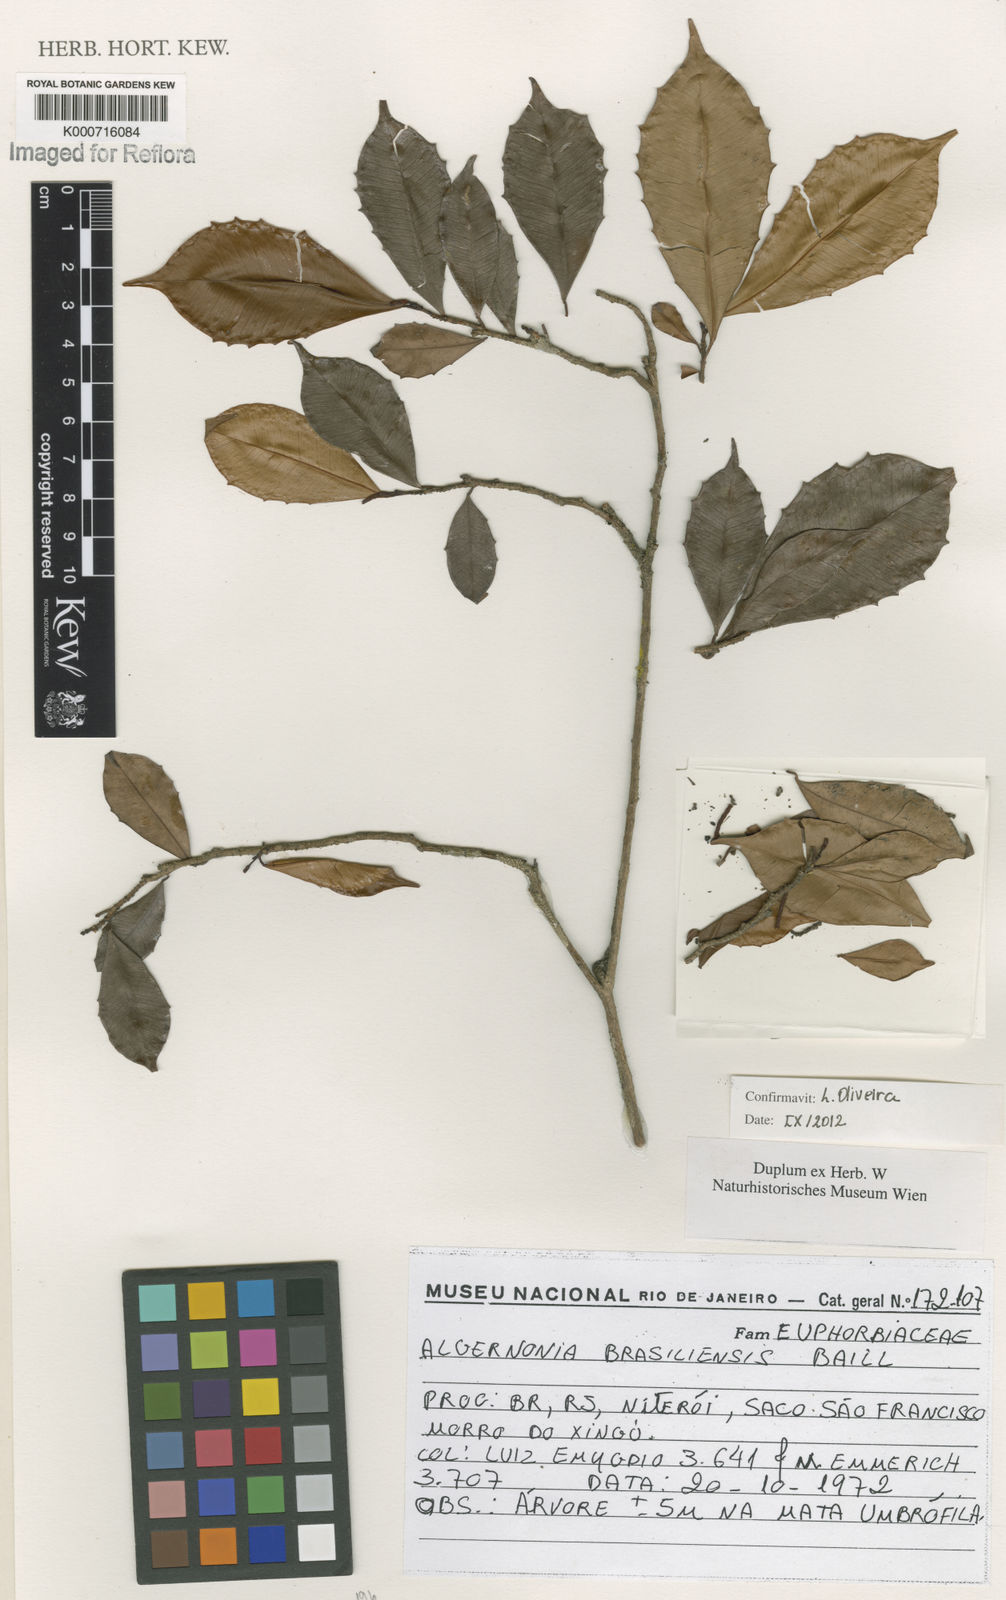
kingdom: Plantae
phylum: Tracheophyta
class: Magnoliopsida
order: Malpighiales
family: Euphorbiaceae
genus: Algernonia
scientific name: Algernonia brasiliensis
